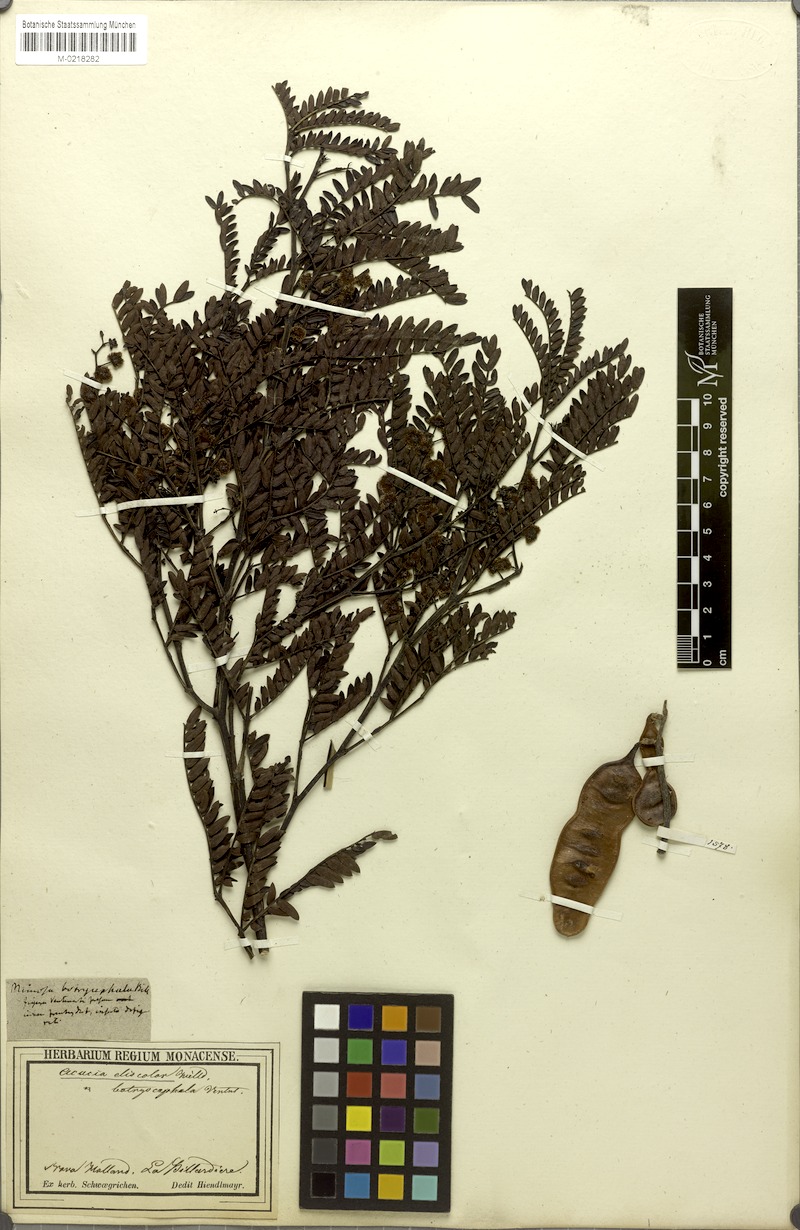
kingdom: Plantae
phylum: Tracheophyta
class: Magnoliopsida
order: Fabales
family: Fabaceae
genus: Acacia
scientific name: Acacia terminalis
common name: Cedar wattle
